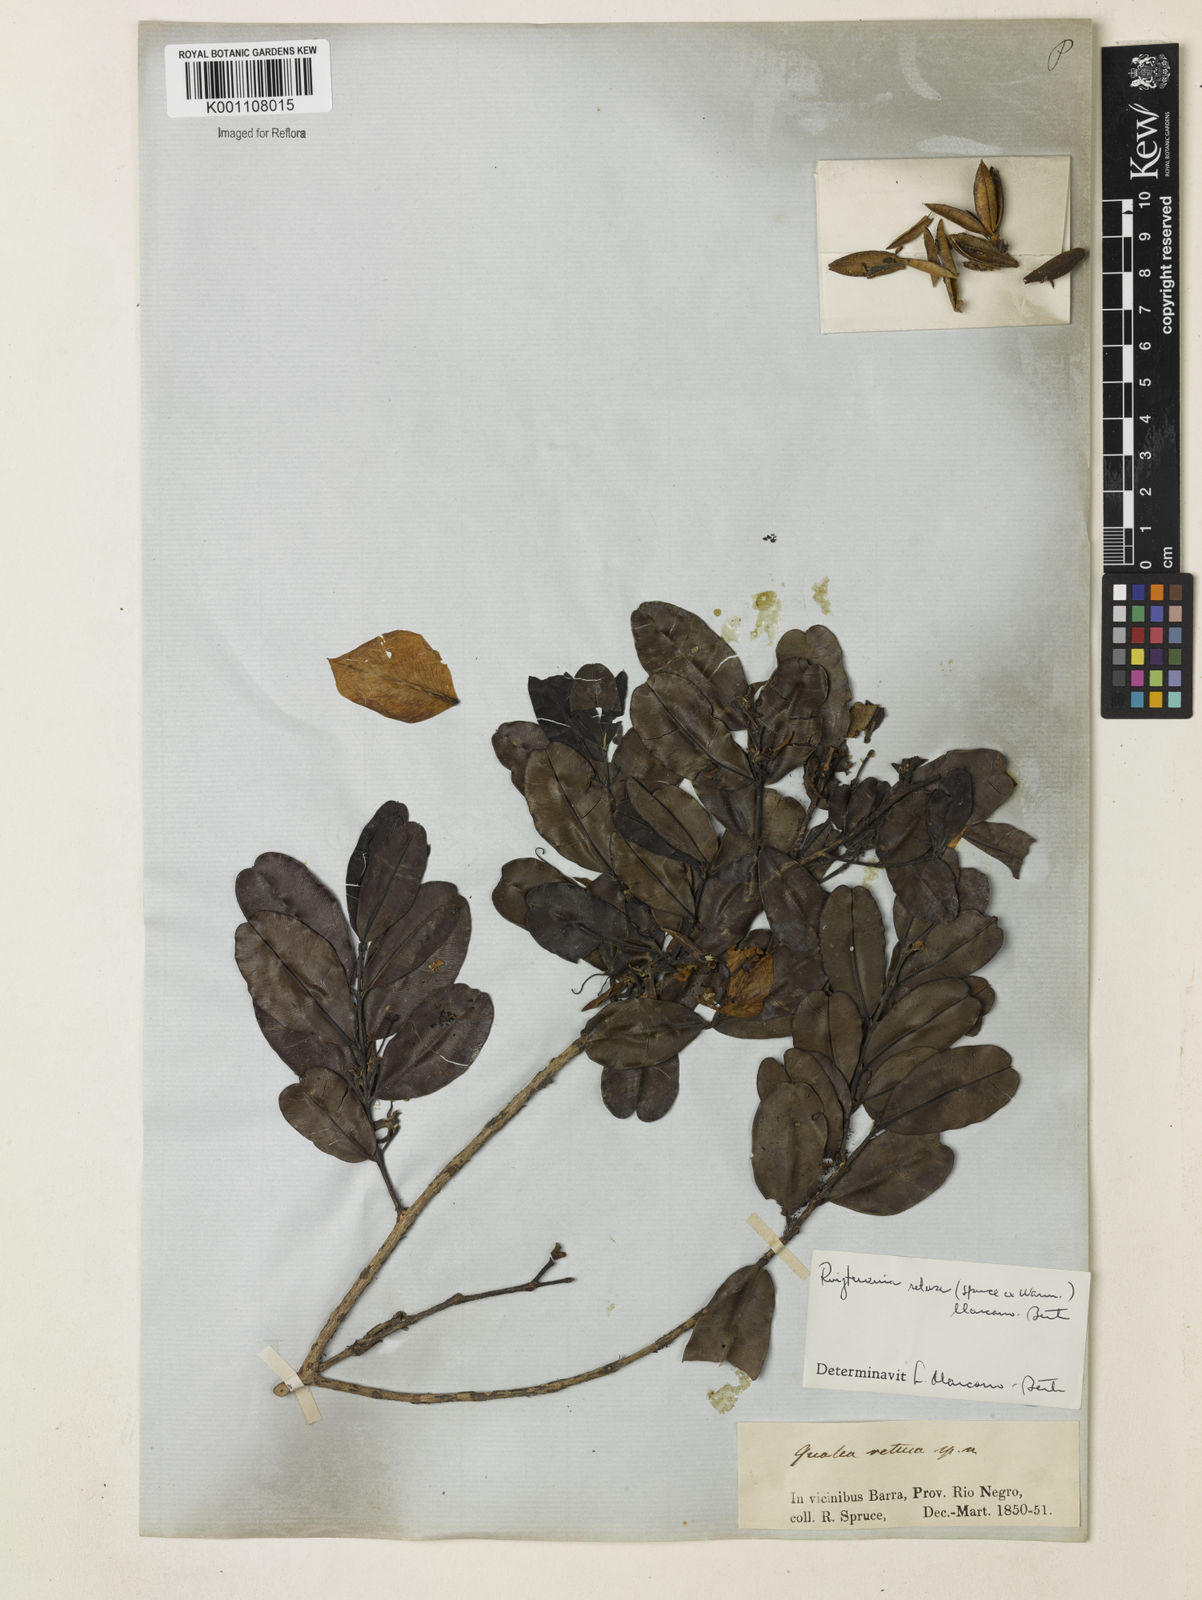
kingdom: Plantae
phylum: Tracheophyta
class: Magnoliopsida
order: Myrtales
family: Vochysiaceae
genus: Ruizterania
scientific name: Ruizterania retusa
